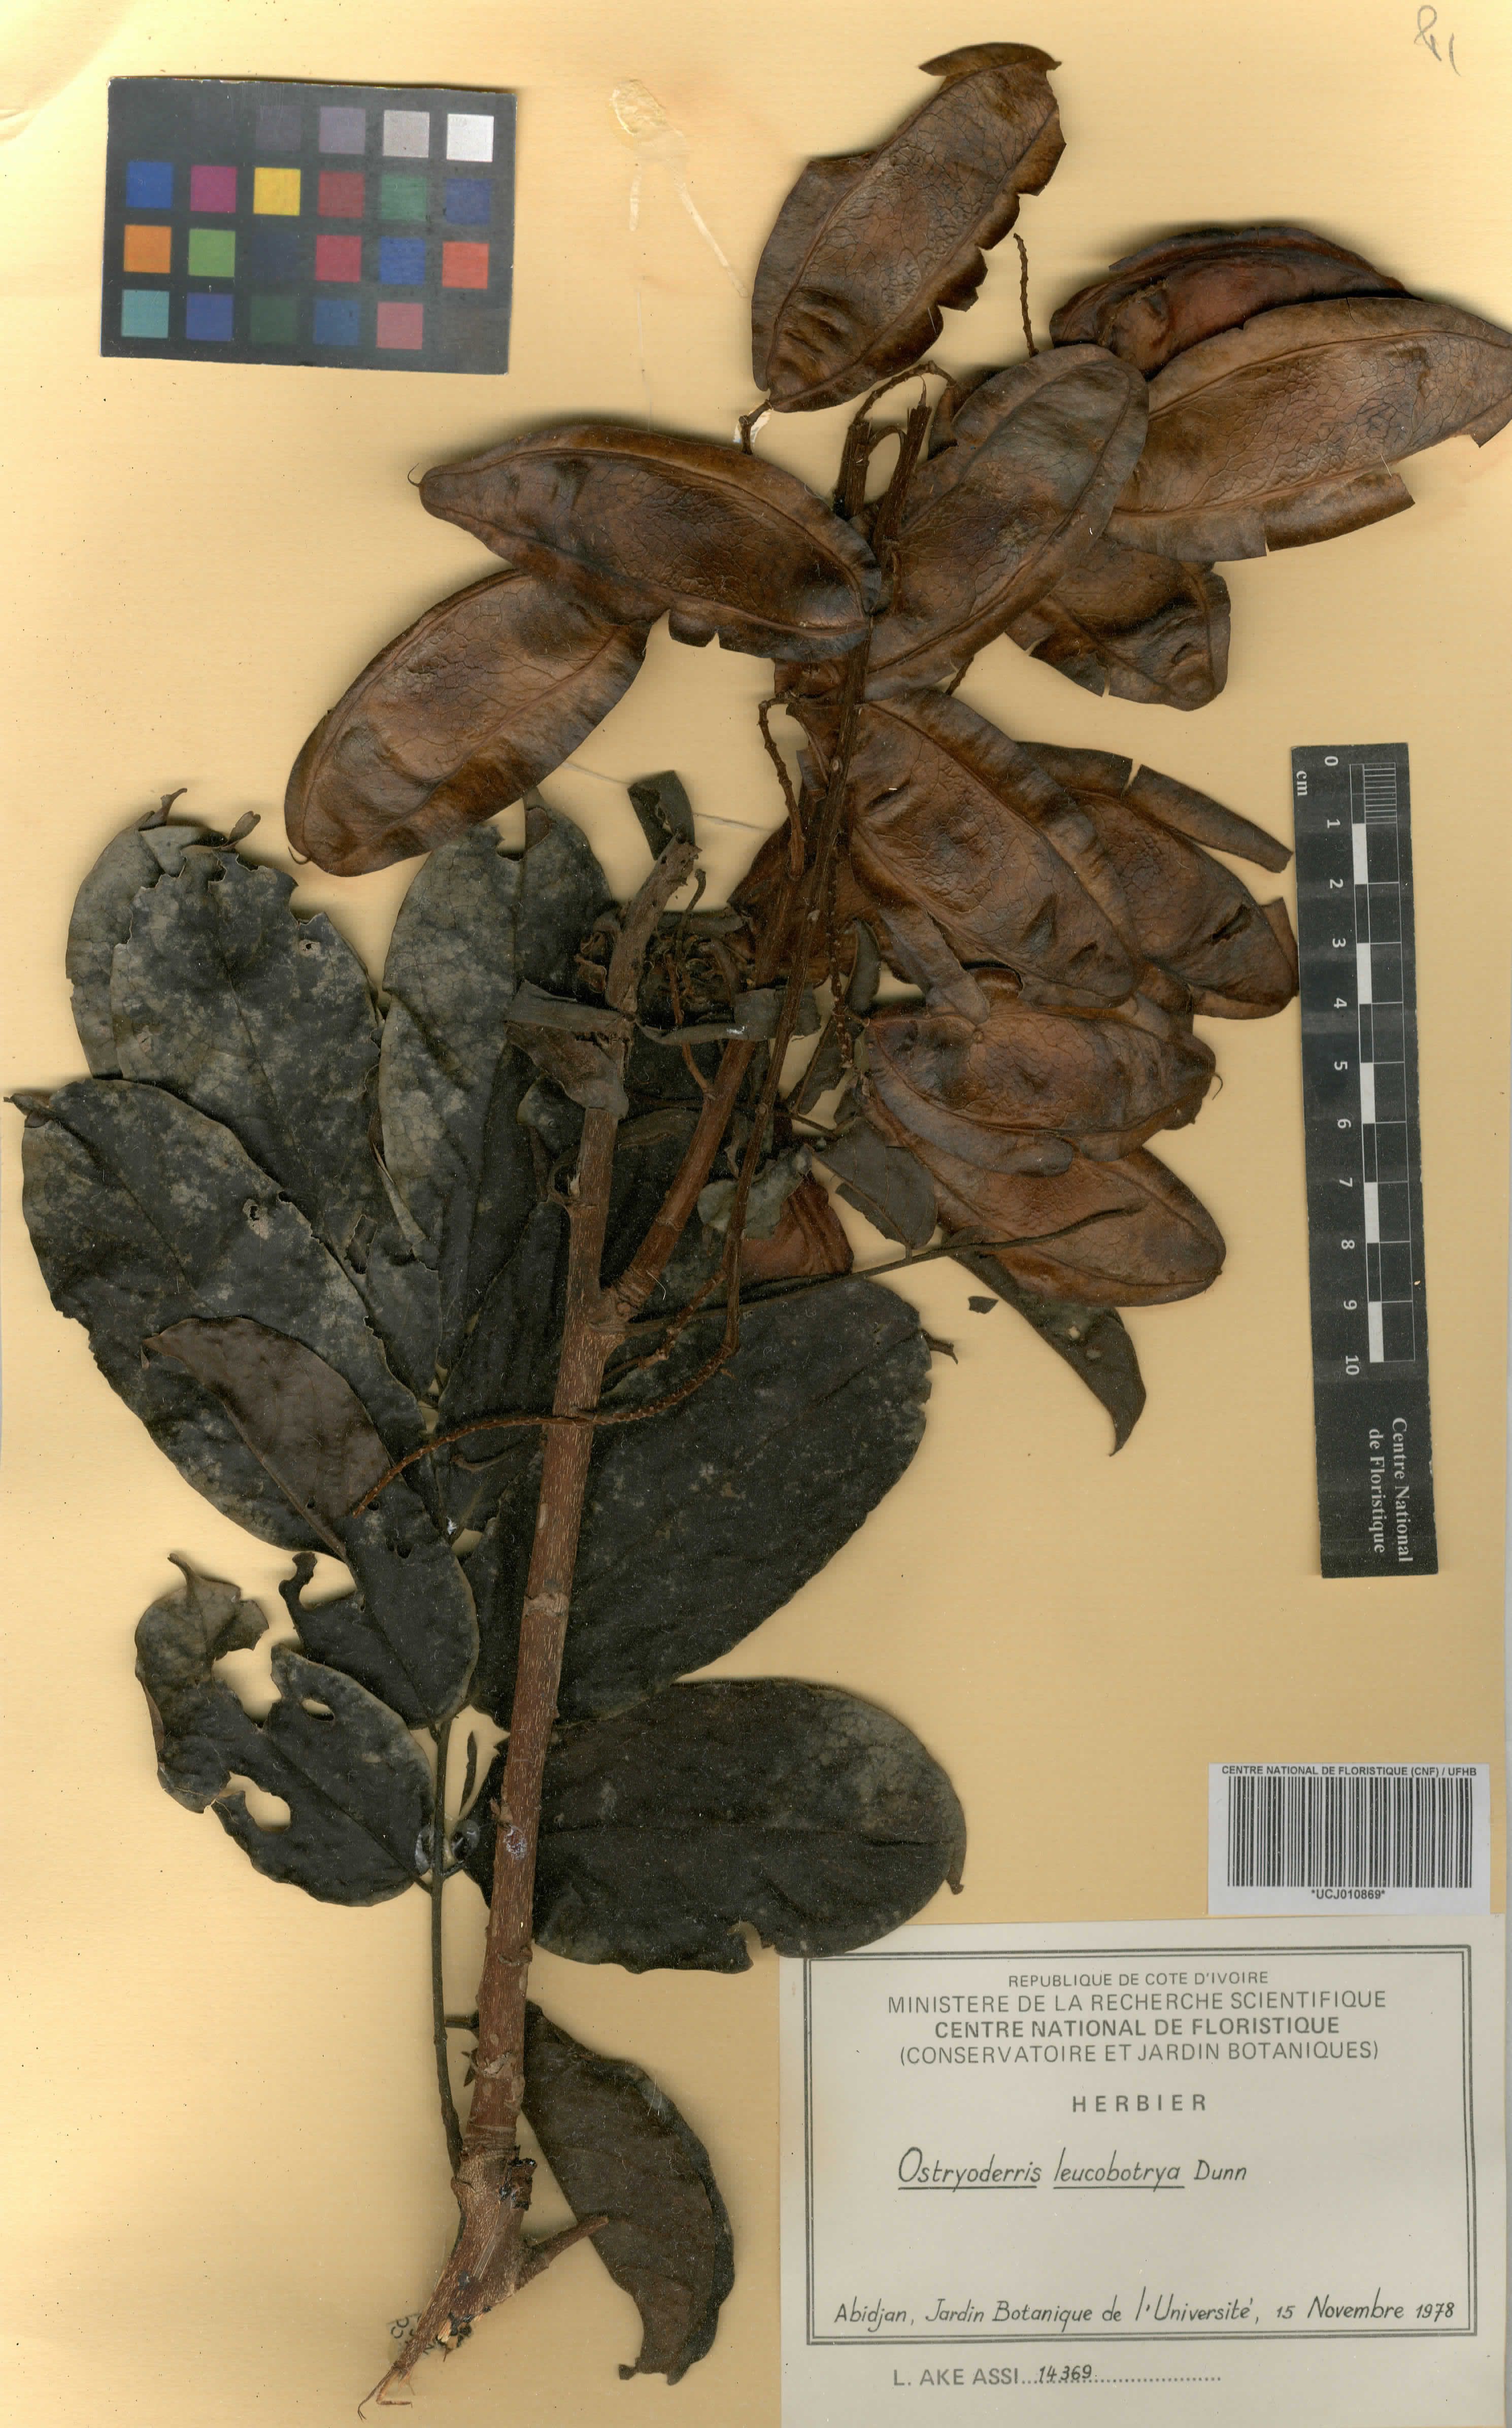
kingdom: Plantae
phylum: Tracheophyta
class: Magnoliopsida
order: Fabales
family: Fabaceae
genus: Aganope
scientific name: Aganope leucobotrya
